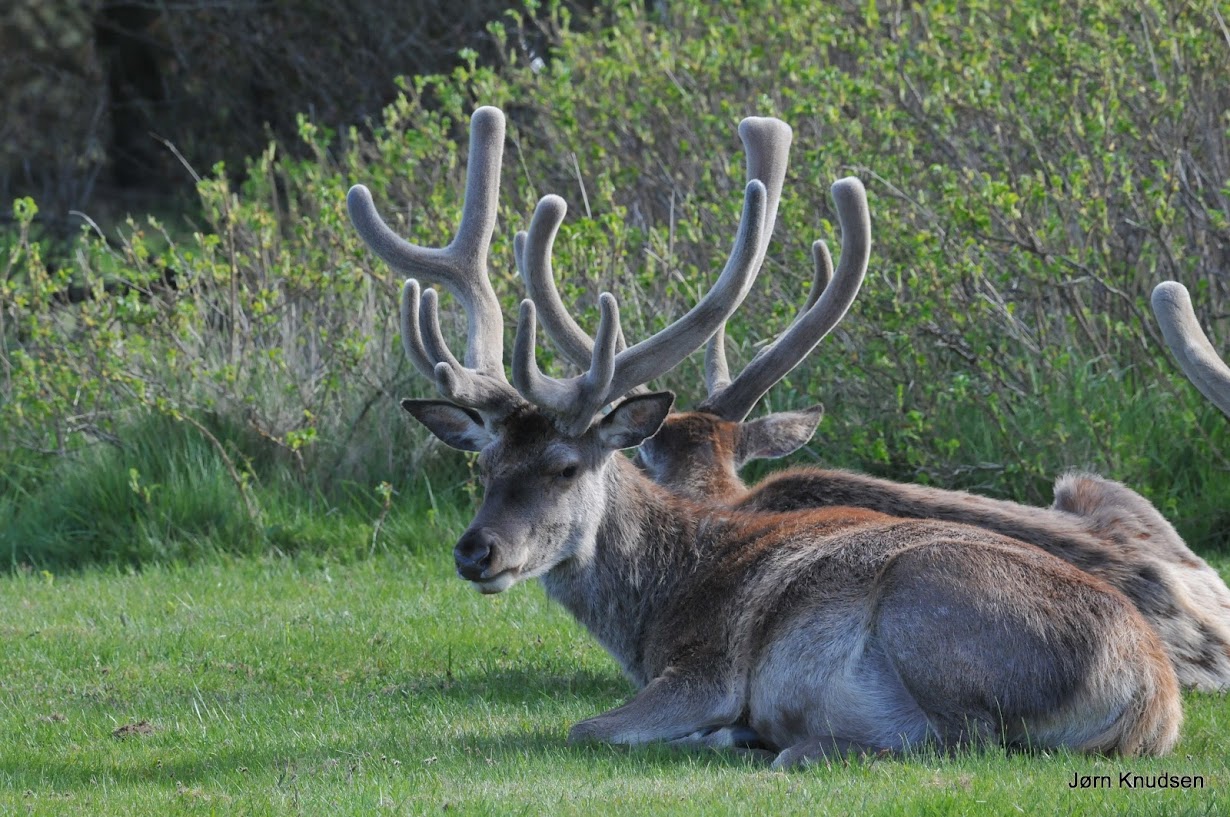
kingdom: Animalia
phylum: Chordata
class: Mammalia
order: Artiodactyla
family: Cervidae
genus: Cervus
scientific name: Cervus elaphus
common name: Krondyr
